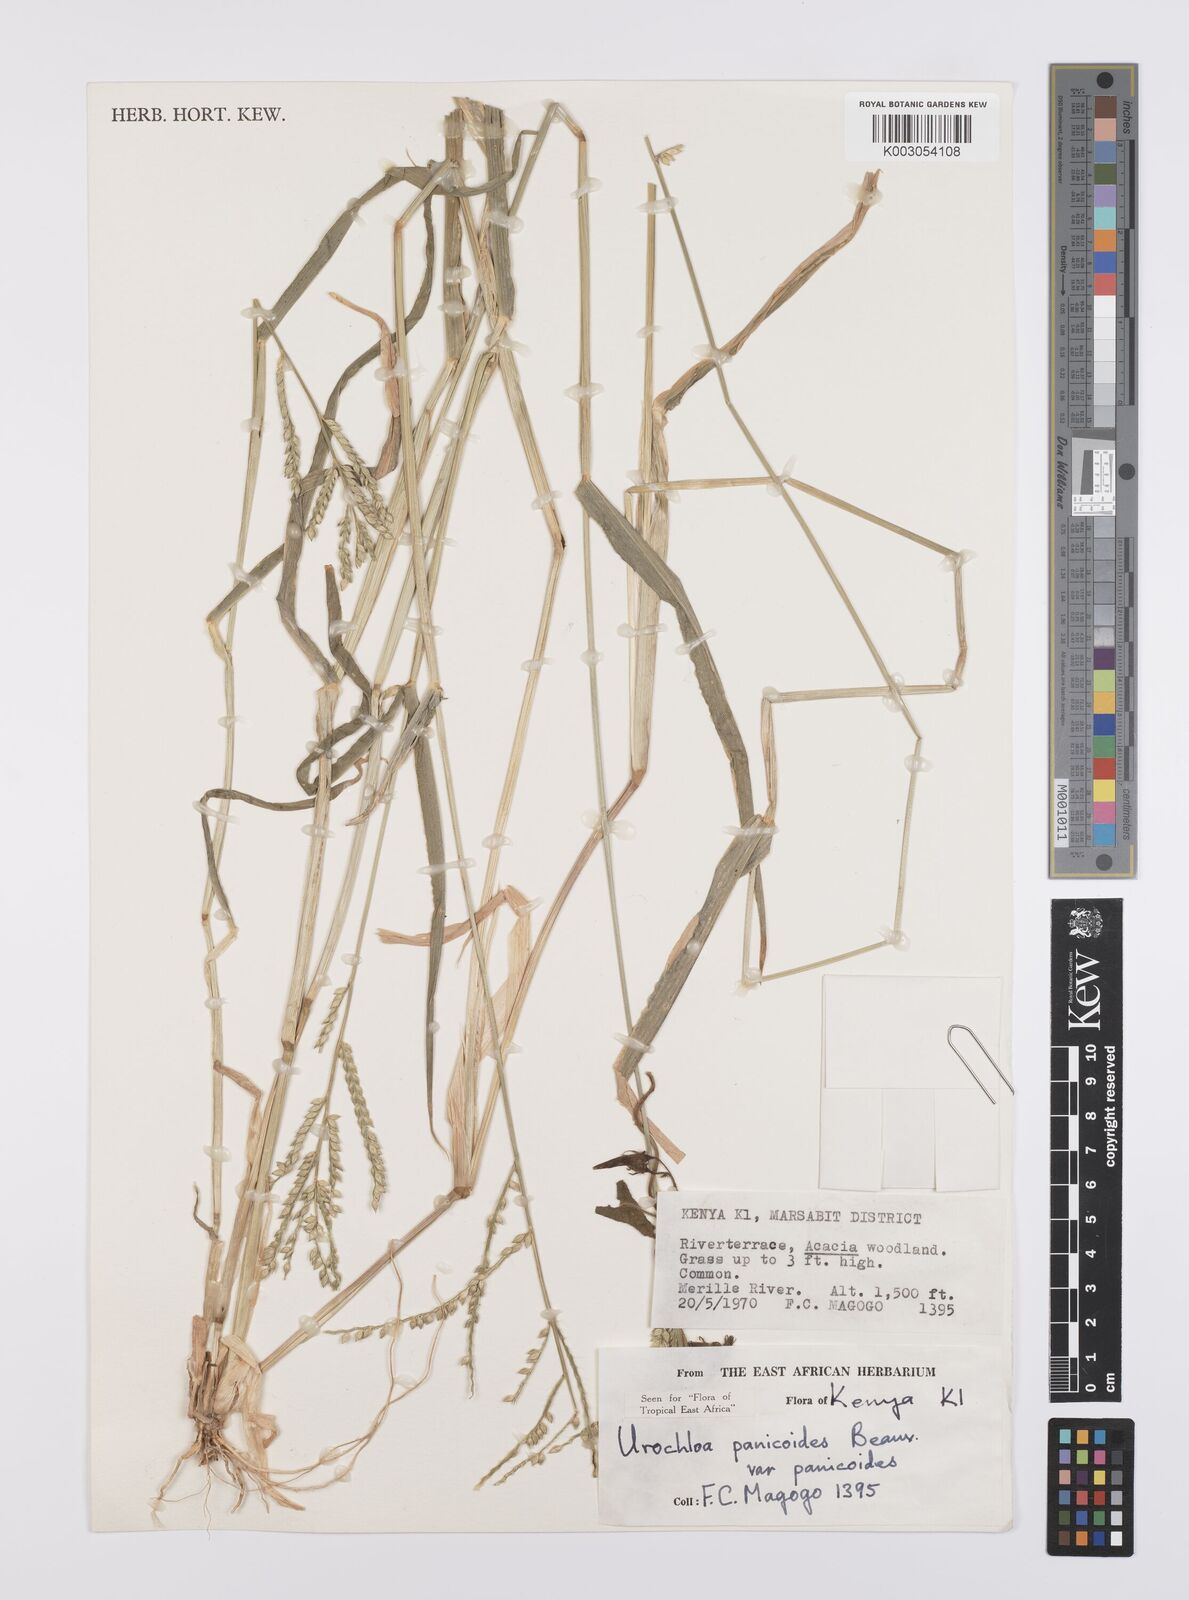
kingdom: Plantae
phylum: Tracheophyta
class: Liliopsida
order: Poales
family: Poaceae
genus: Urochloa
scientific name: Urochloa panicoides
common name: Sharp-flowered signal-grass
